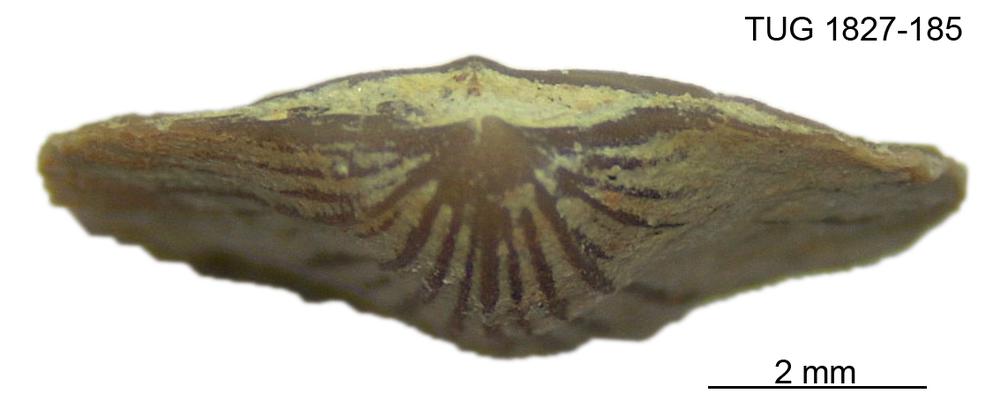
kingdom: Animalia
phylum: Brachiopoda
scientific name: Brachiopoda
